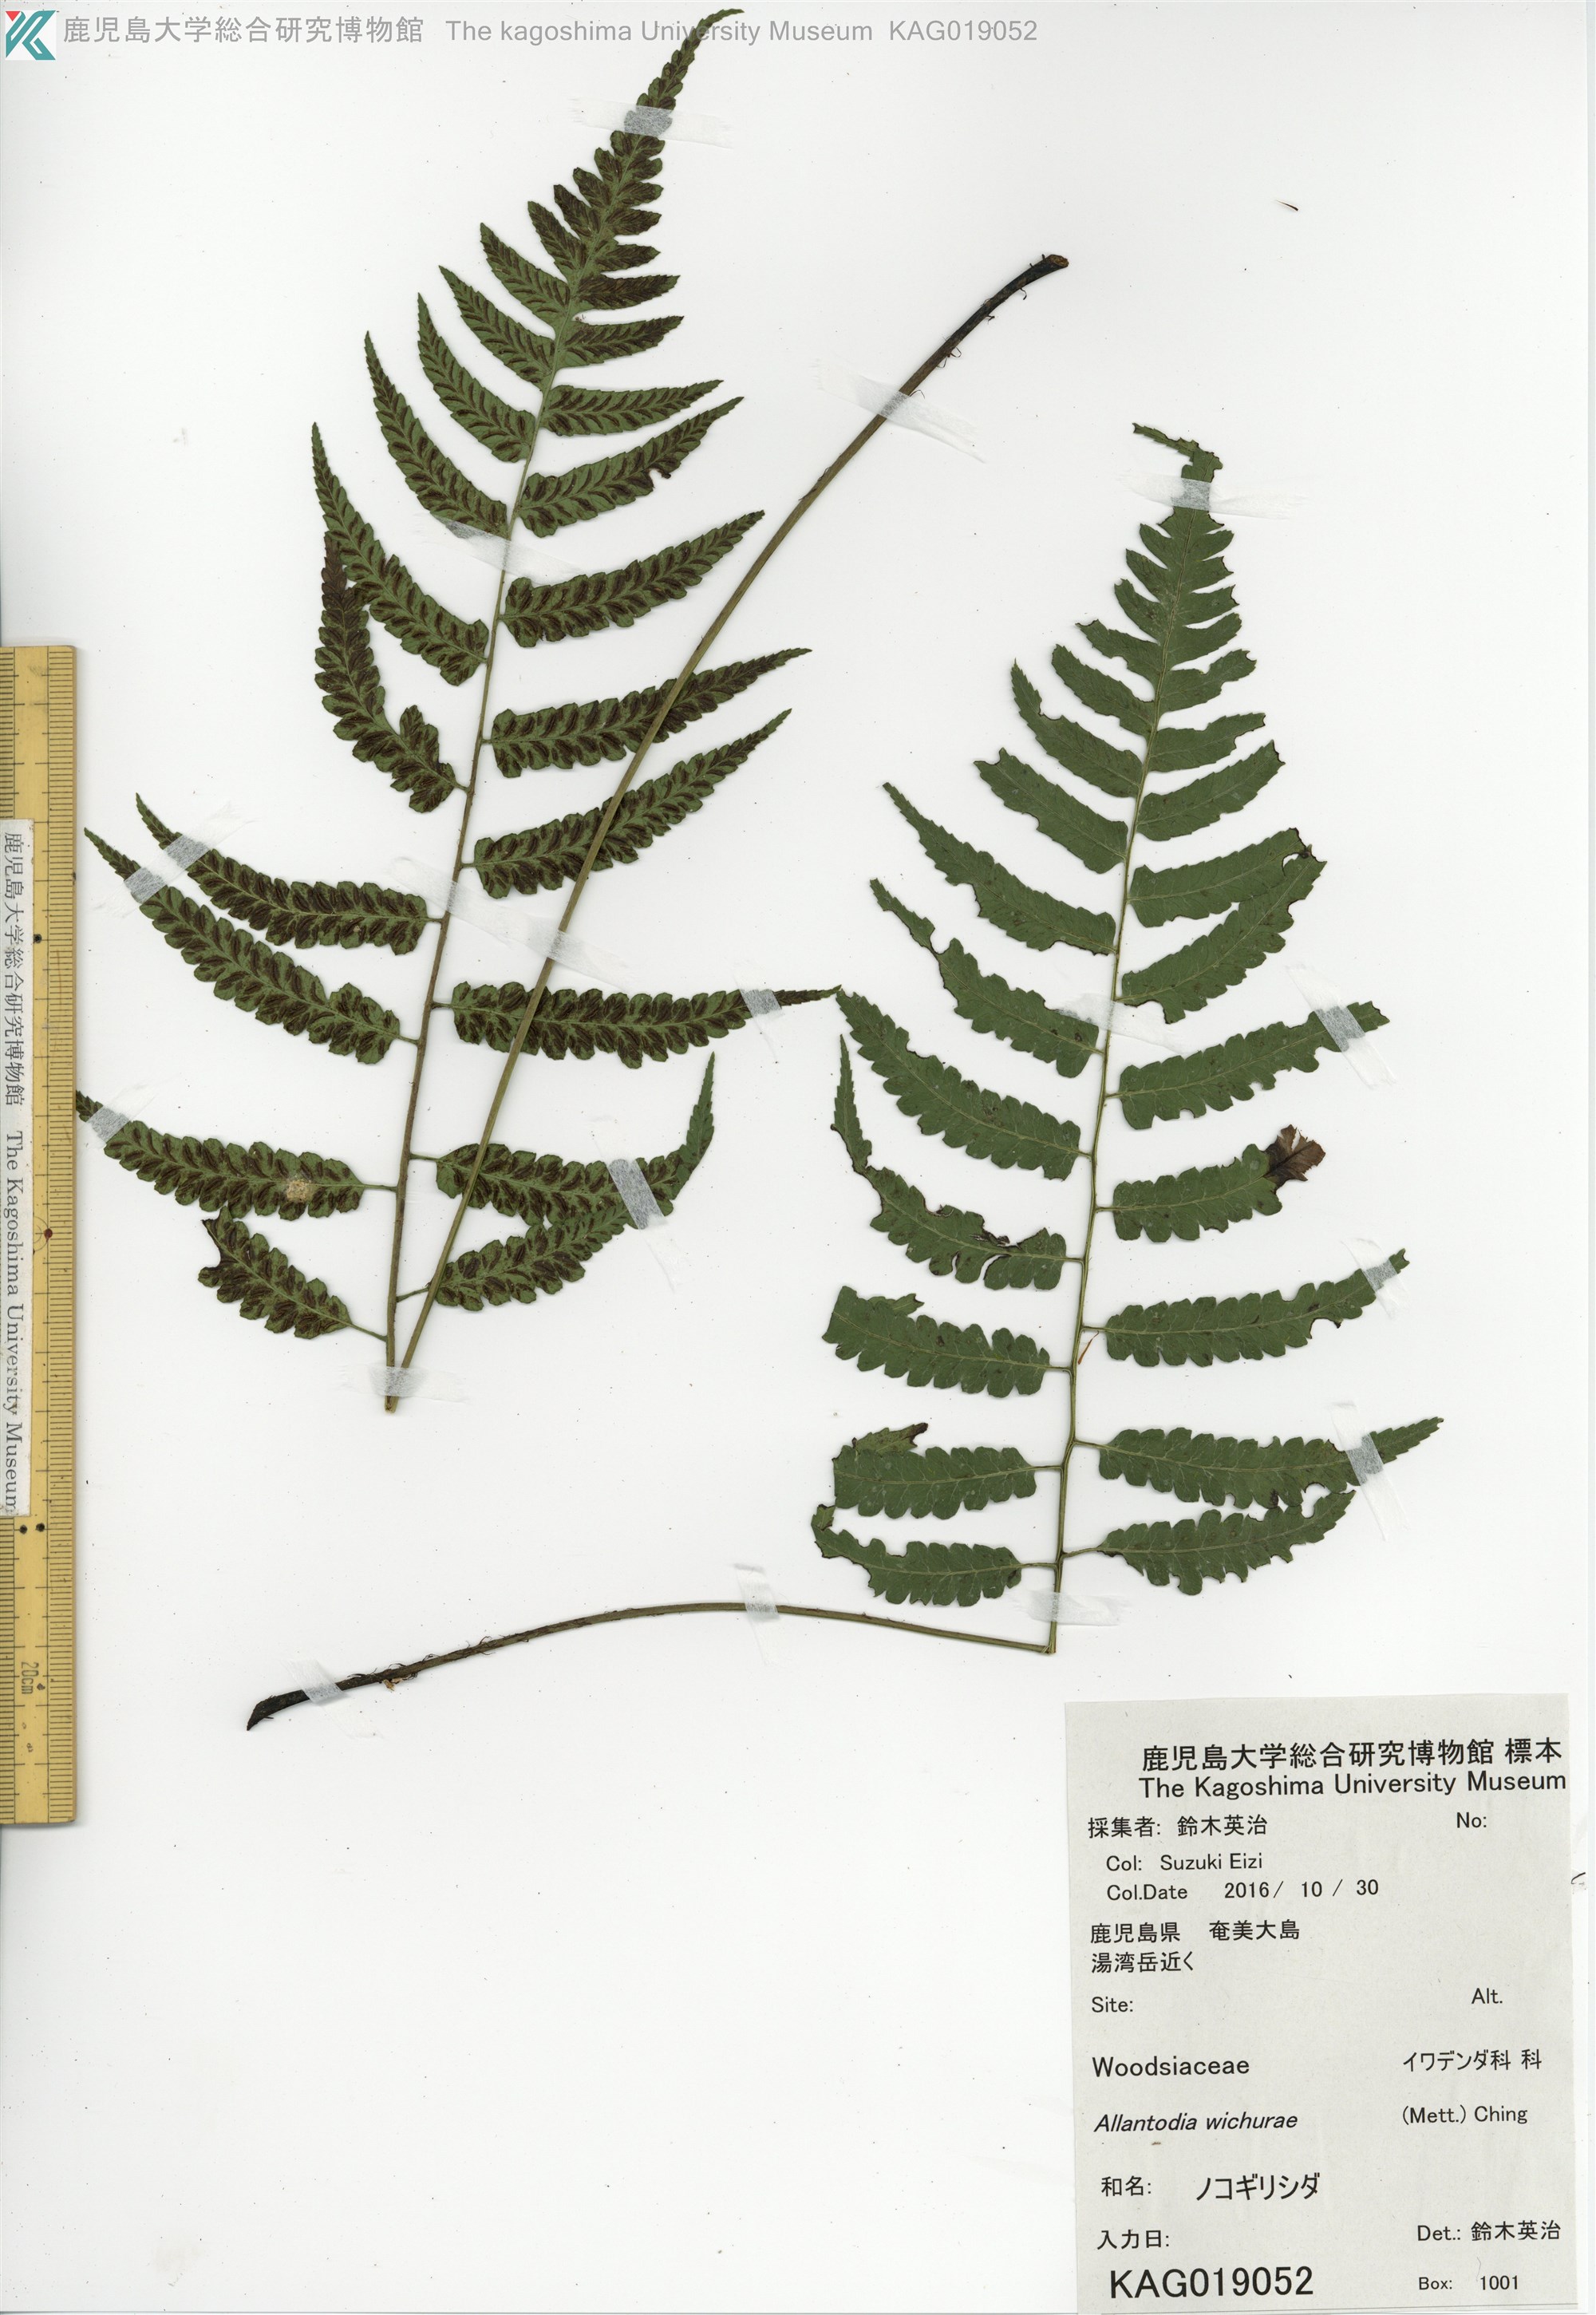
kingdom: Plantae
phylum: Tracheophyta
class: Polypodiopsida
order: Polypodiales
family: Athyriaceae
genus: Diplazium
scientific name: Diplazium wichurae
